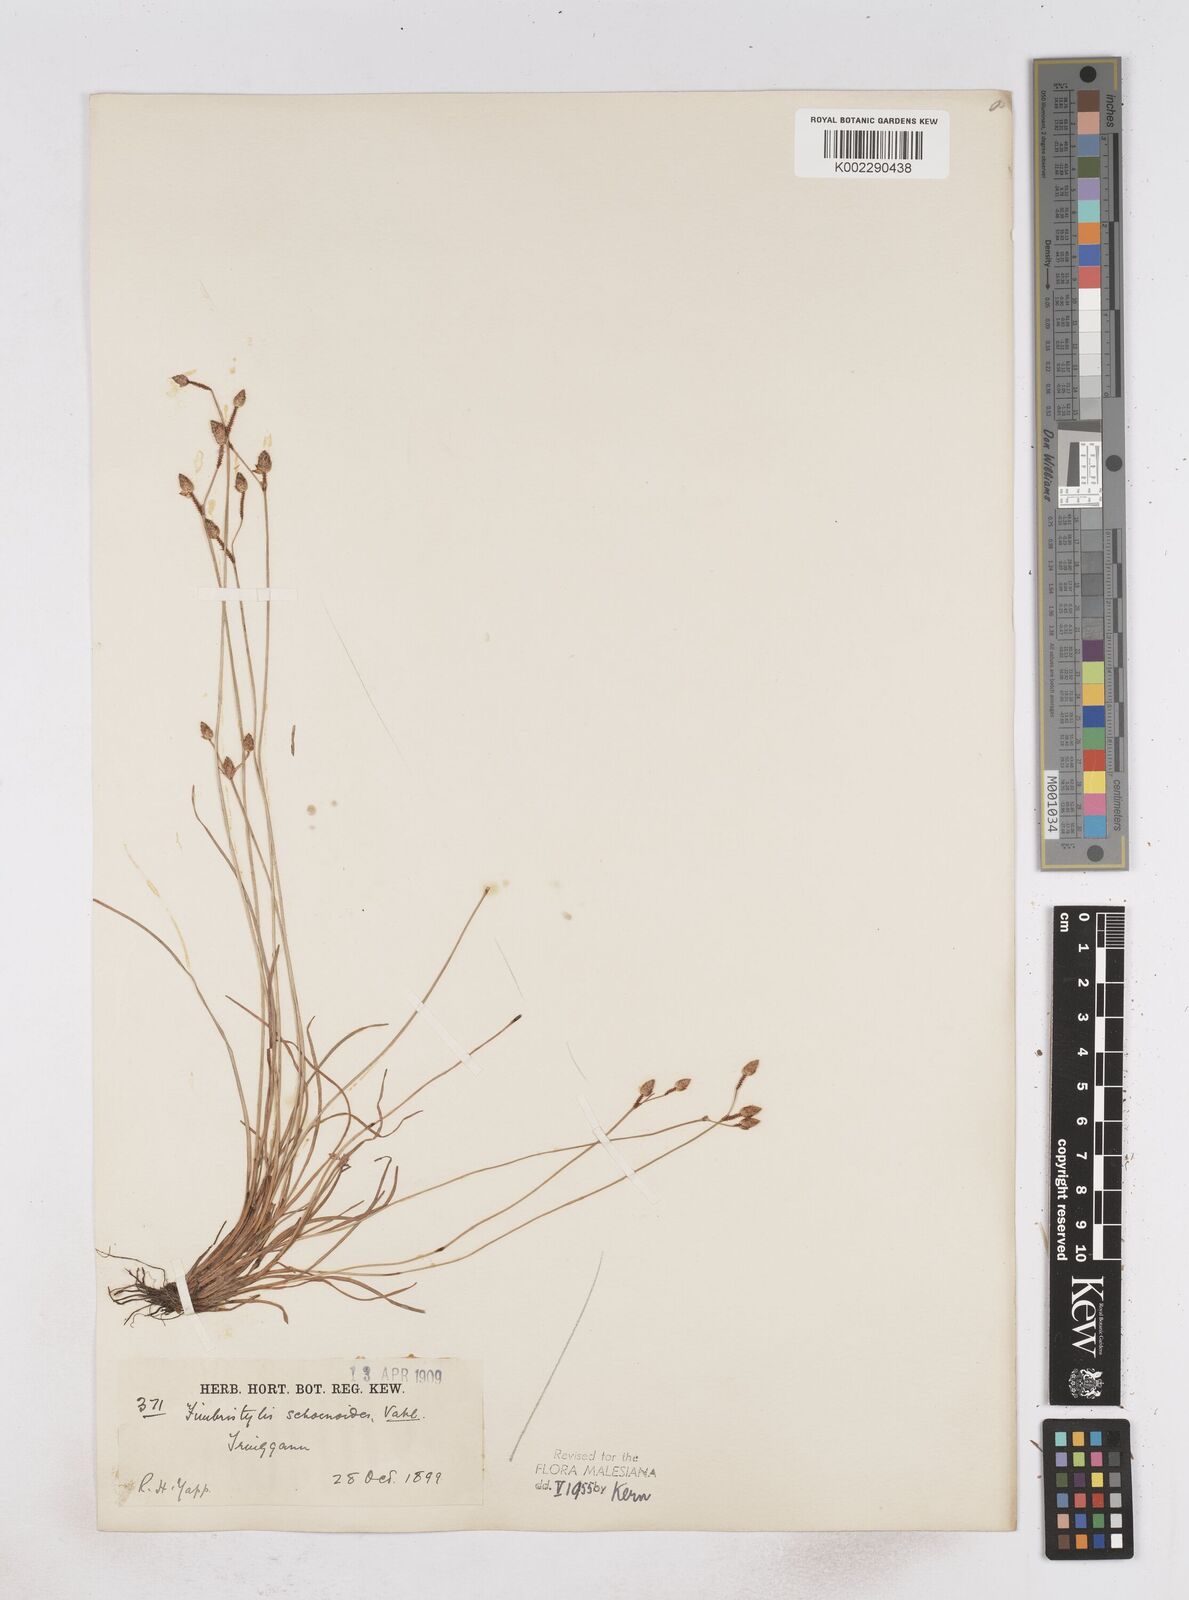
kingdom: Plantae
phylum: Tracheophyta
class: Liliopsida
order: Poales
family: Cyperaceae
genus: Fimbristylis
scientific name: Fimbristylis schoenoides
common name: Ditch fimbry
